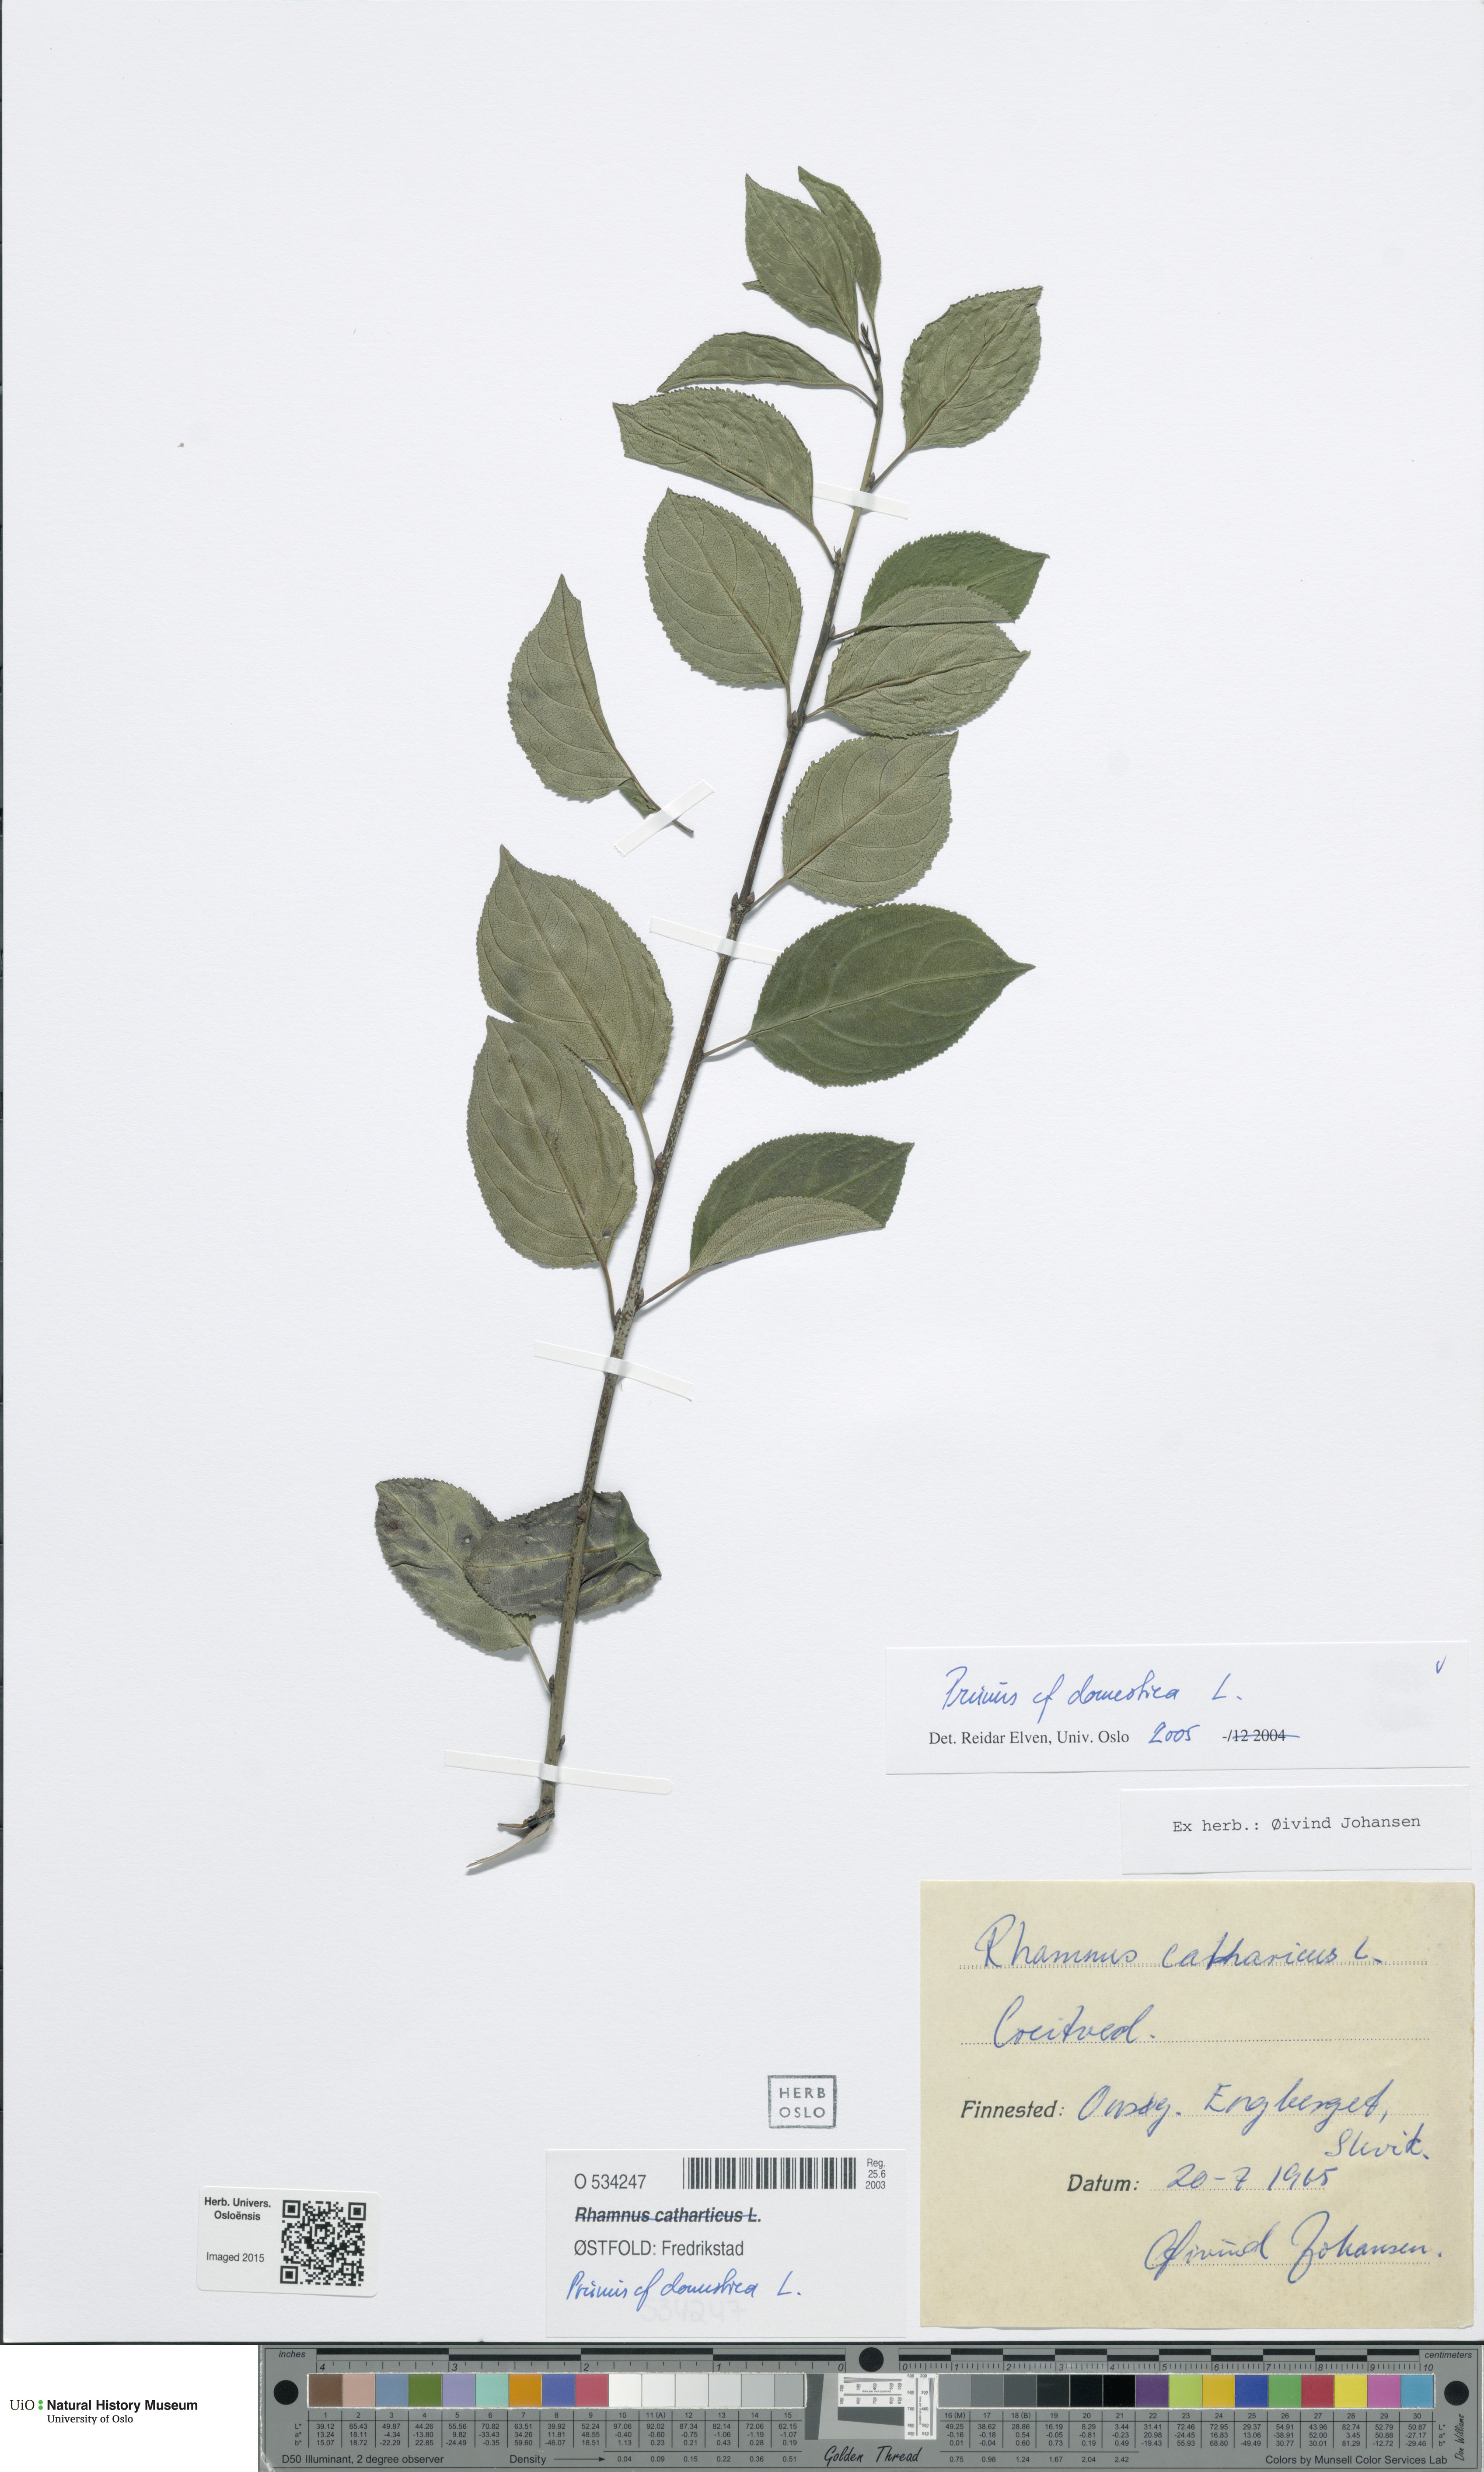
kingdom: Plantae
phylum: Tracheophyta
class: Magnoliopsida
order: Rosales
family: Rosaceae
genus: Prunus
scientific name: Prunus domestica
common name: Wild plum
